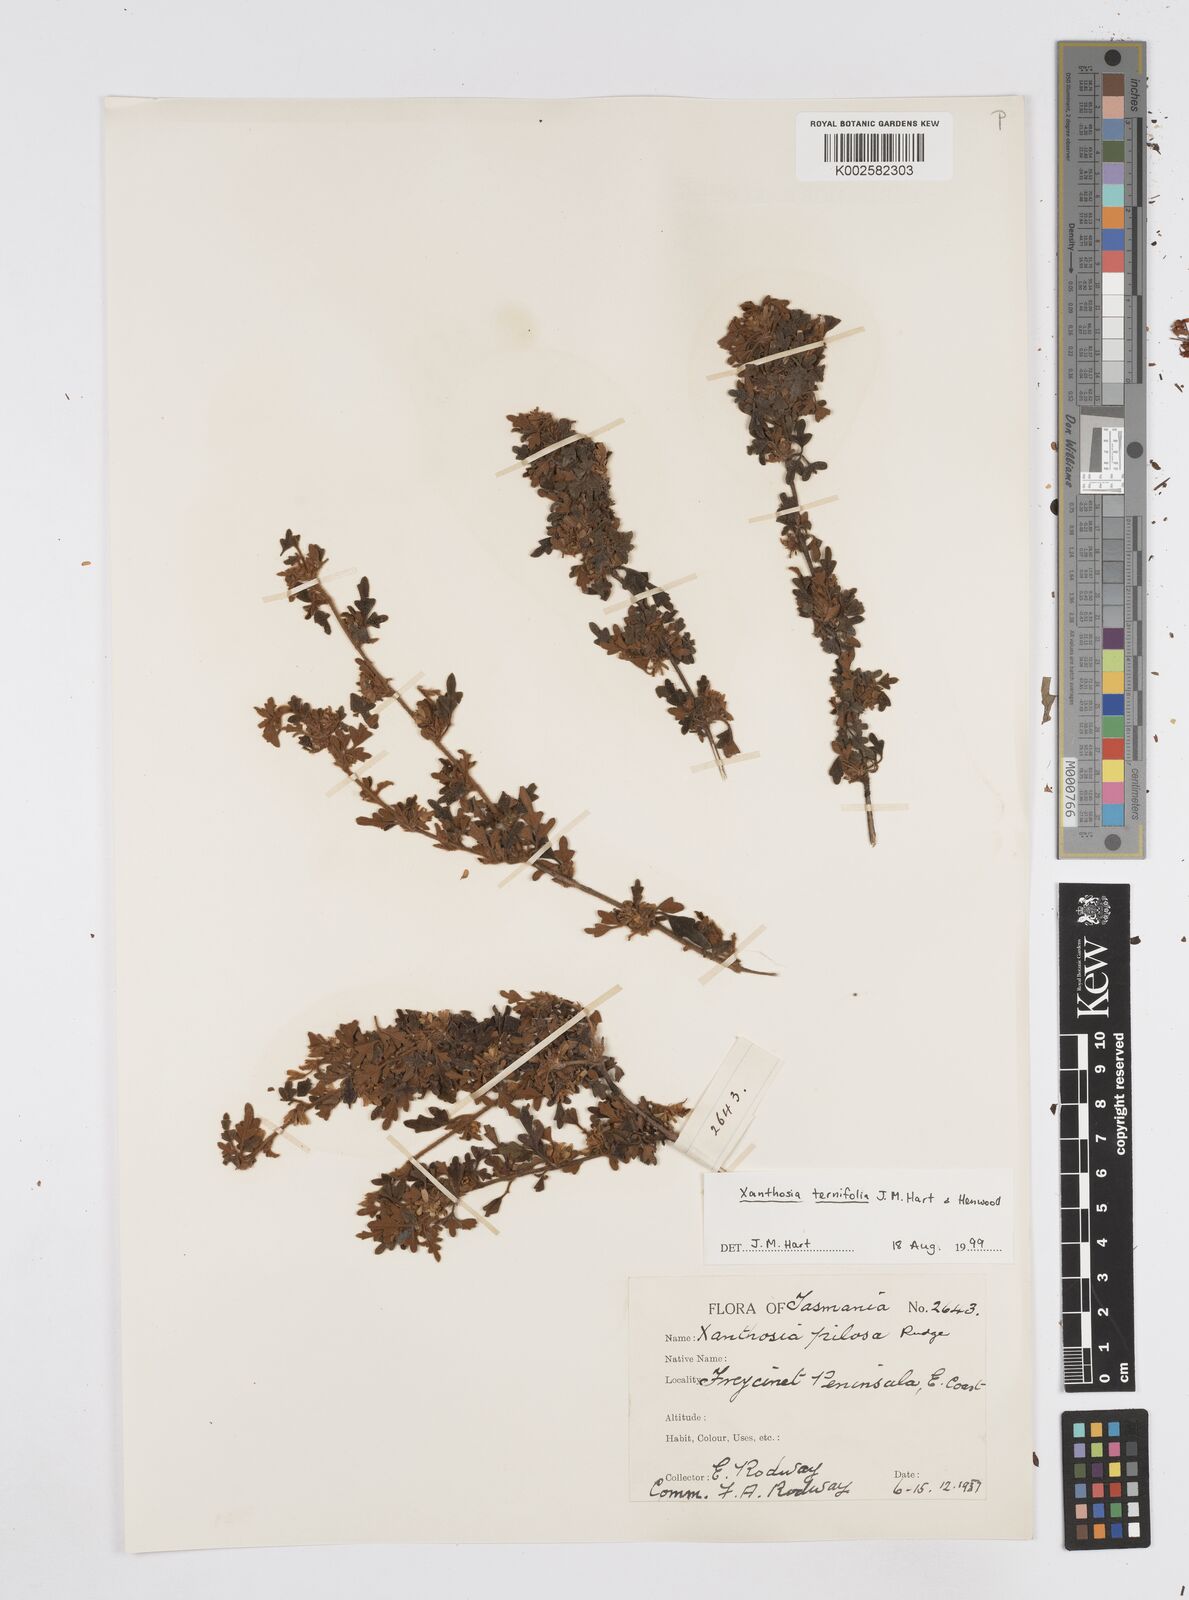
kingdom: Plantae
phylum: Tracheophyta
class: Magnoliopsida
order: Apiales
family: Apiaceae
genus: Xanthosia
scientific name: Xanthosia ternifolia
